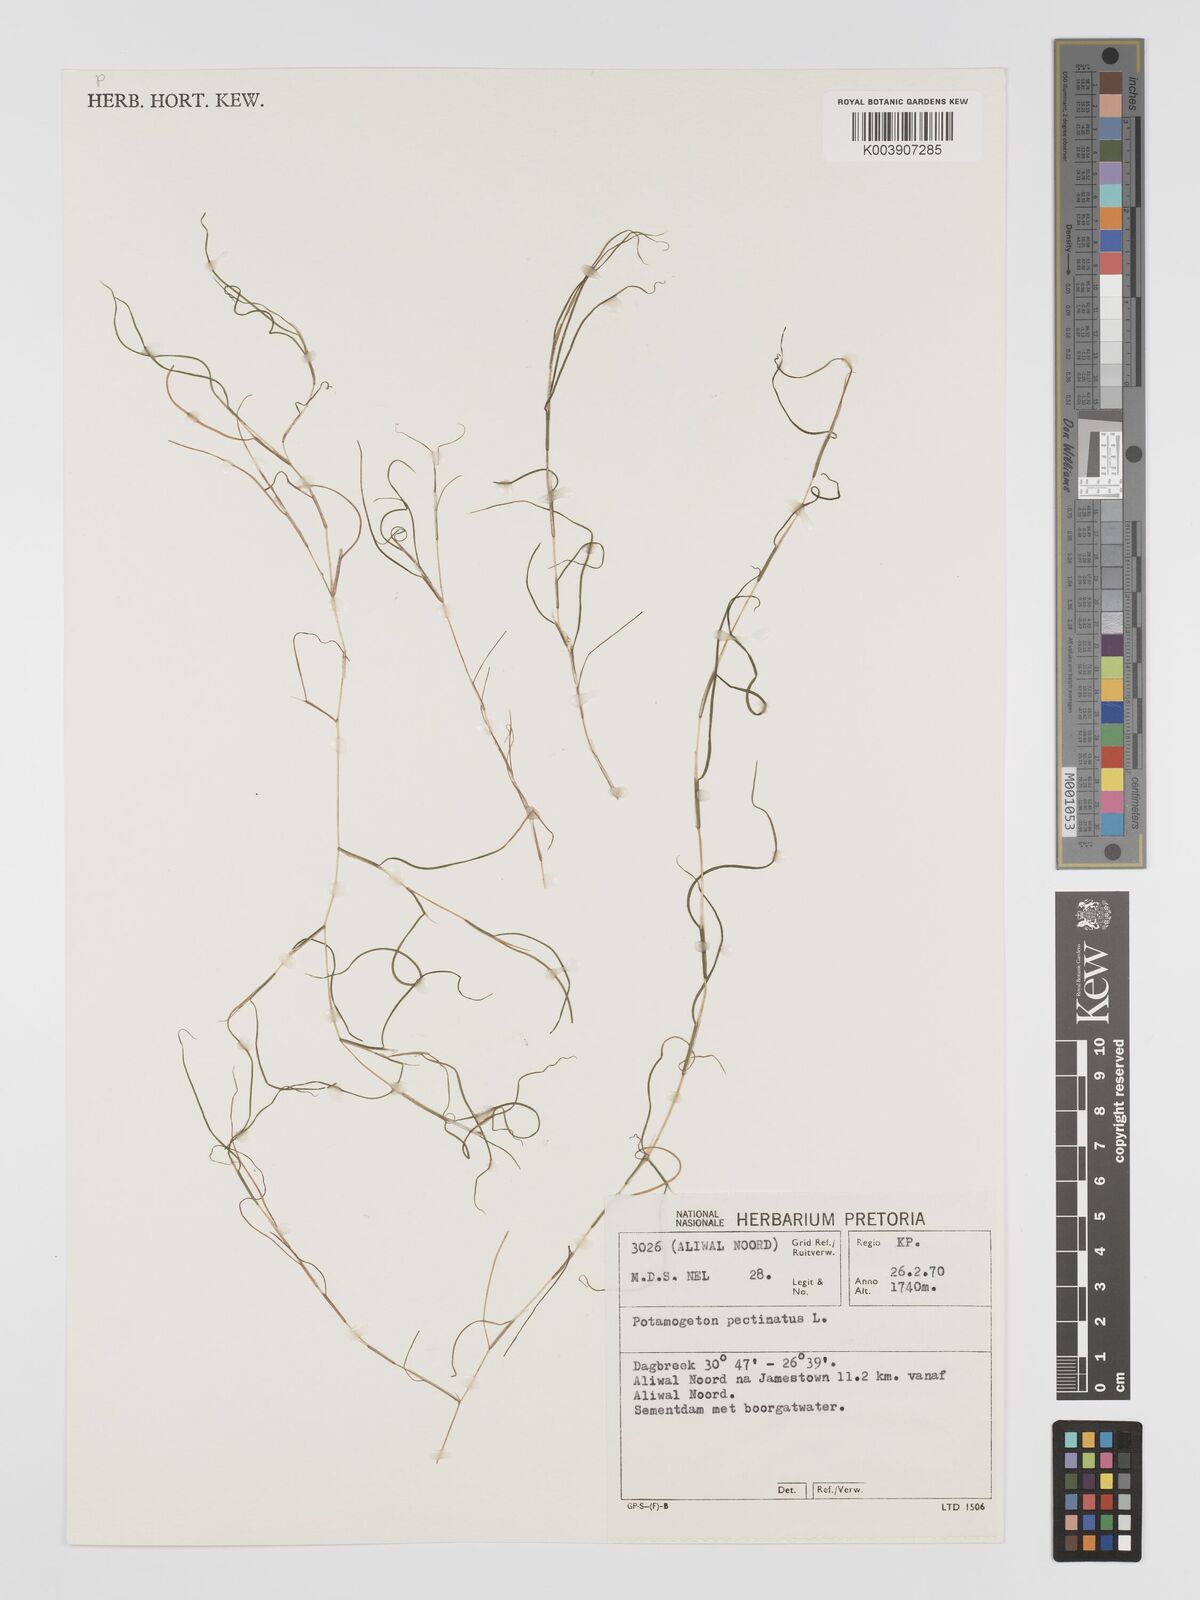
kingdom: Plantae
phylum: Tracheophyta
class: Liliopsida
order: Alismatales
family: Potamogetonaceae
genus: Stuckenia
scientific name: Stuckenia pectinata
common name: Sago pondweed
